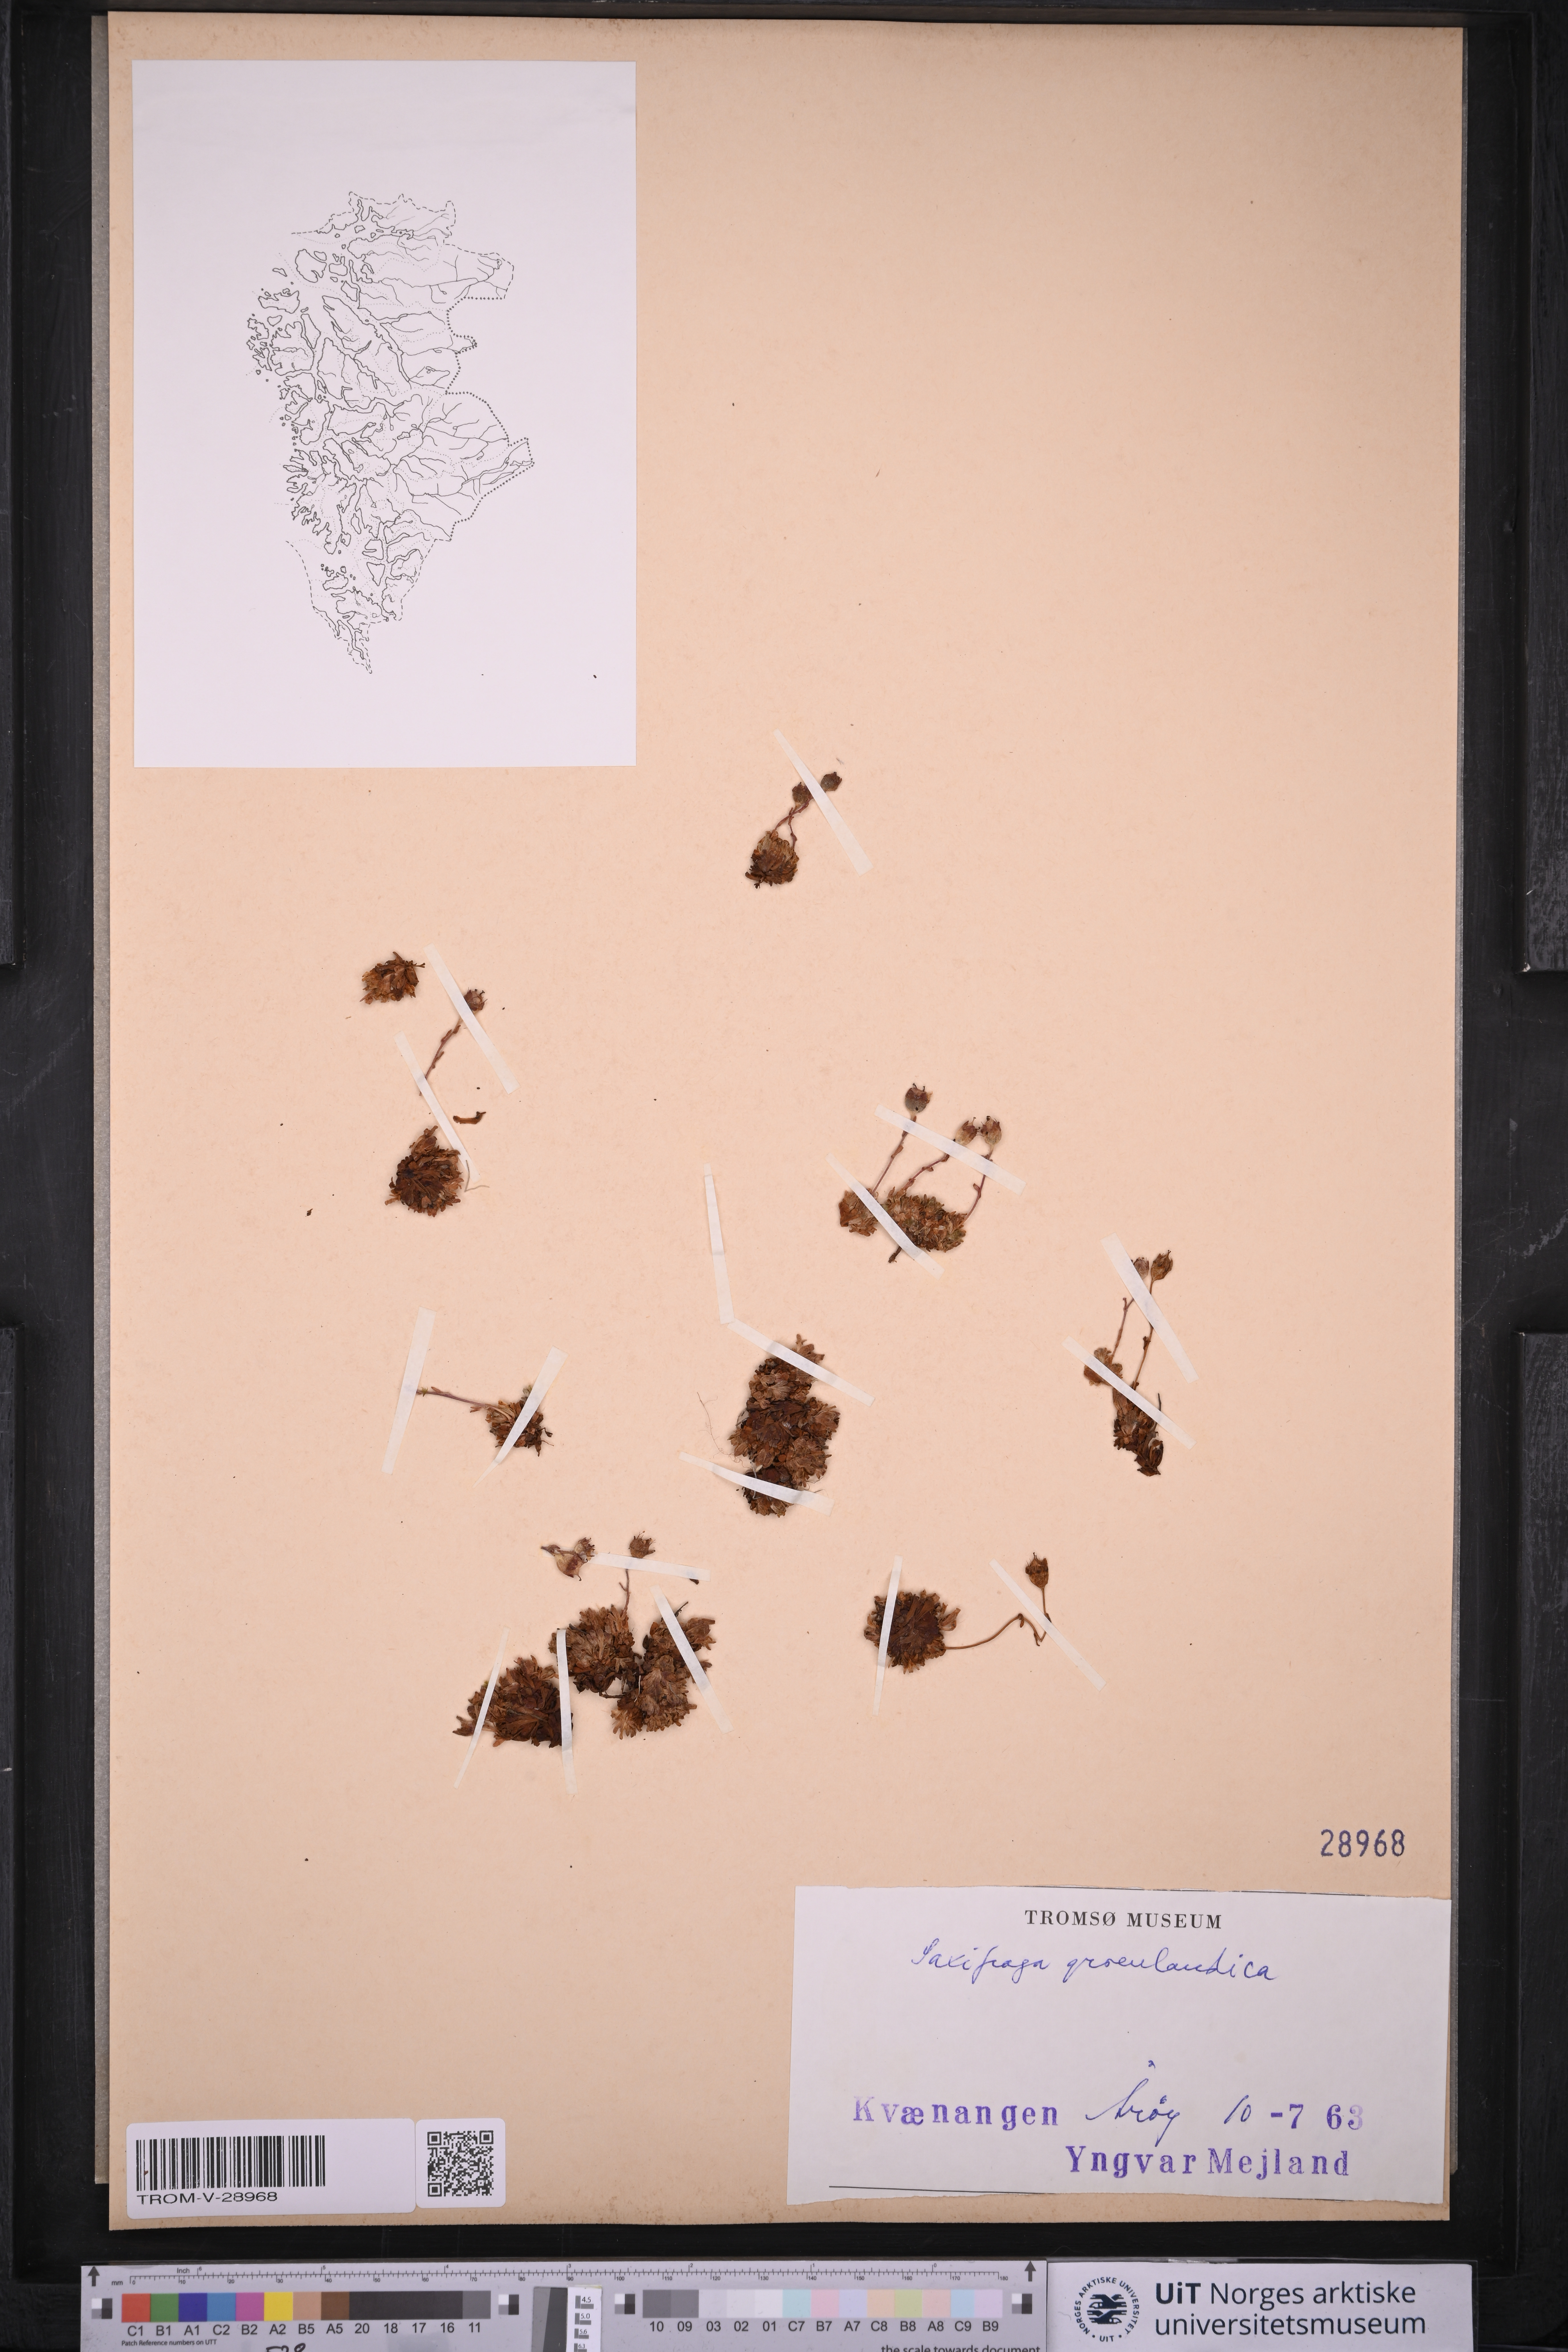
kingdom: Plantae
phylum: Tracheophyta
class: Magnoliopsida
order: Saxifragales
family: Saxifragaceae
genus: Saxifraga
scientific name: Saxifraga cespitosa
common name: Tufted saxifrage
